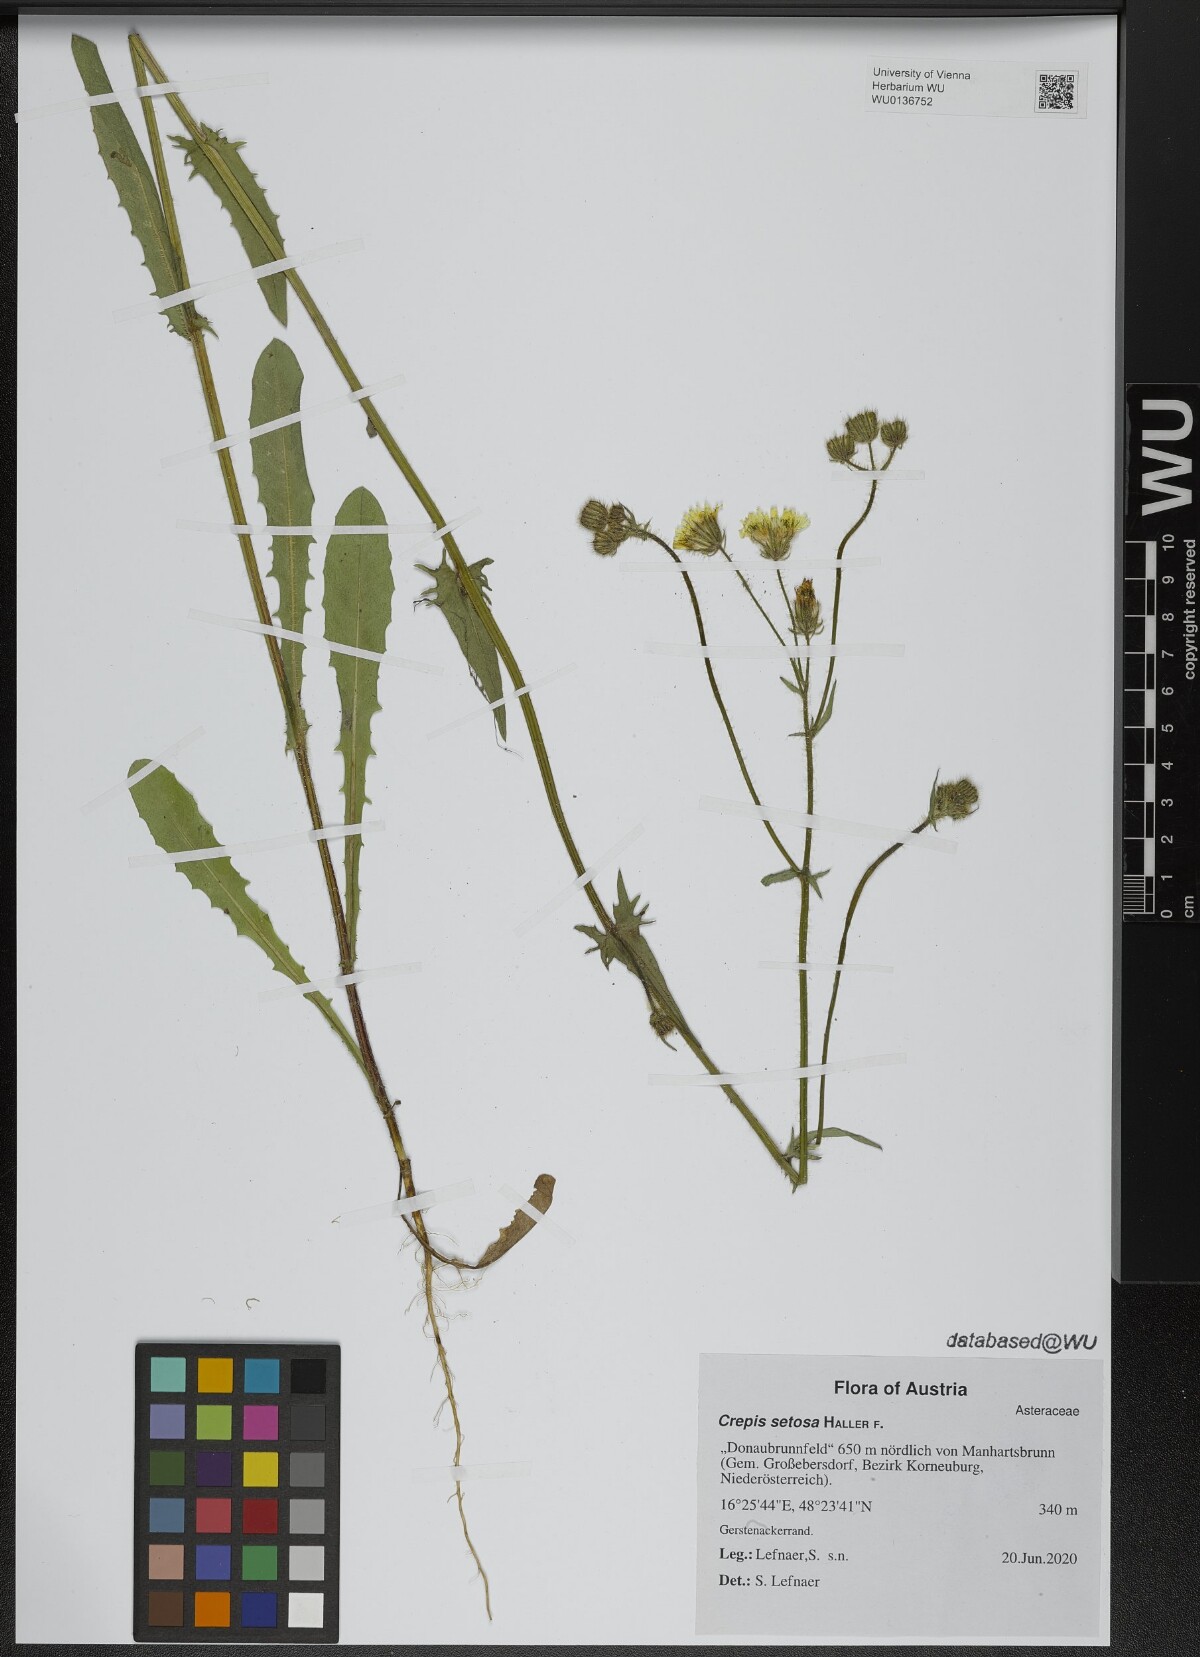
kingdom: Plantae
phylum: Tracheophyta
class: Magnoliopsida
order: Asterales
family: Asteraceae
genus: Crepis
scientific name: Crepis setosa
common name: Bristly hawk's-beard
